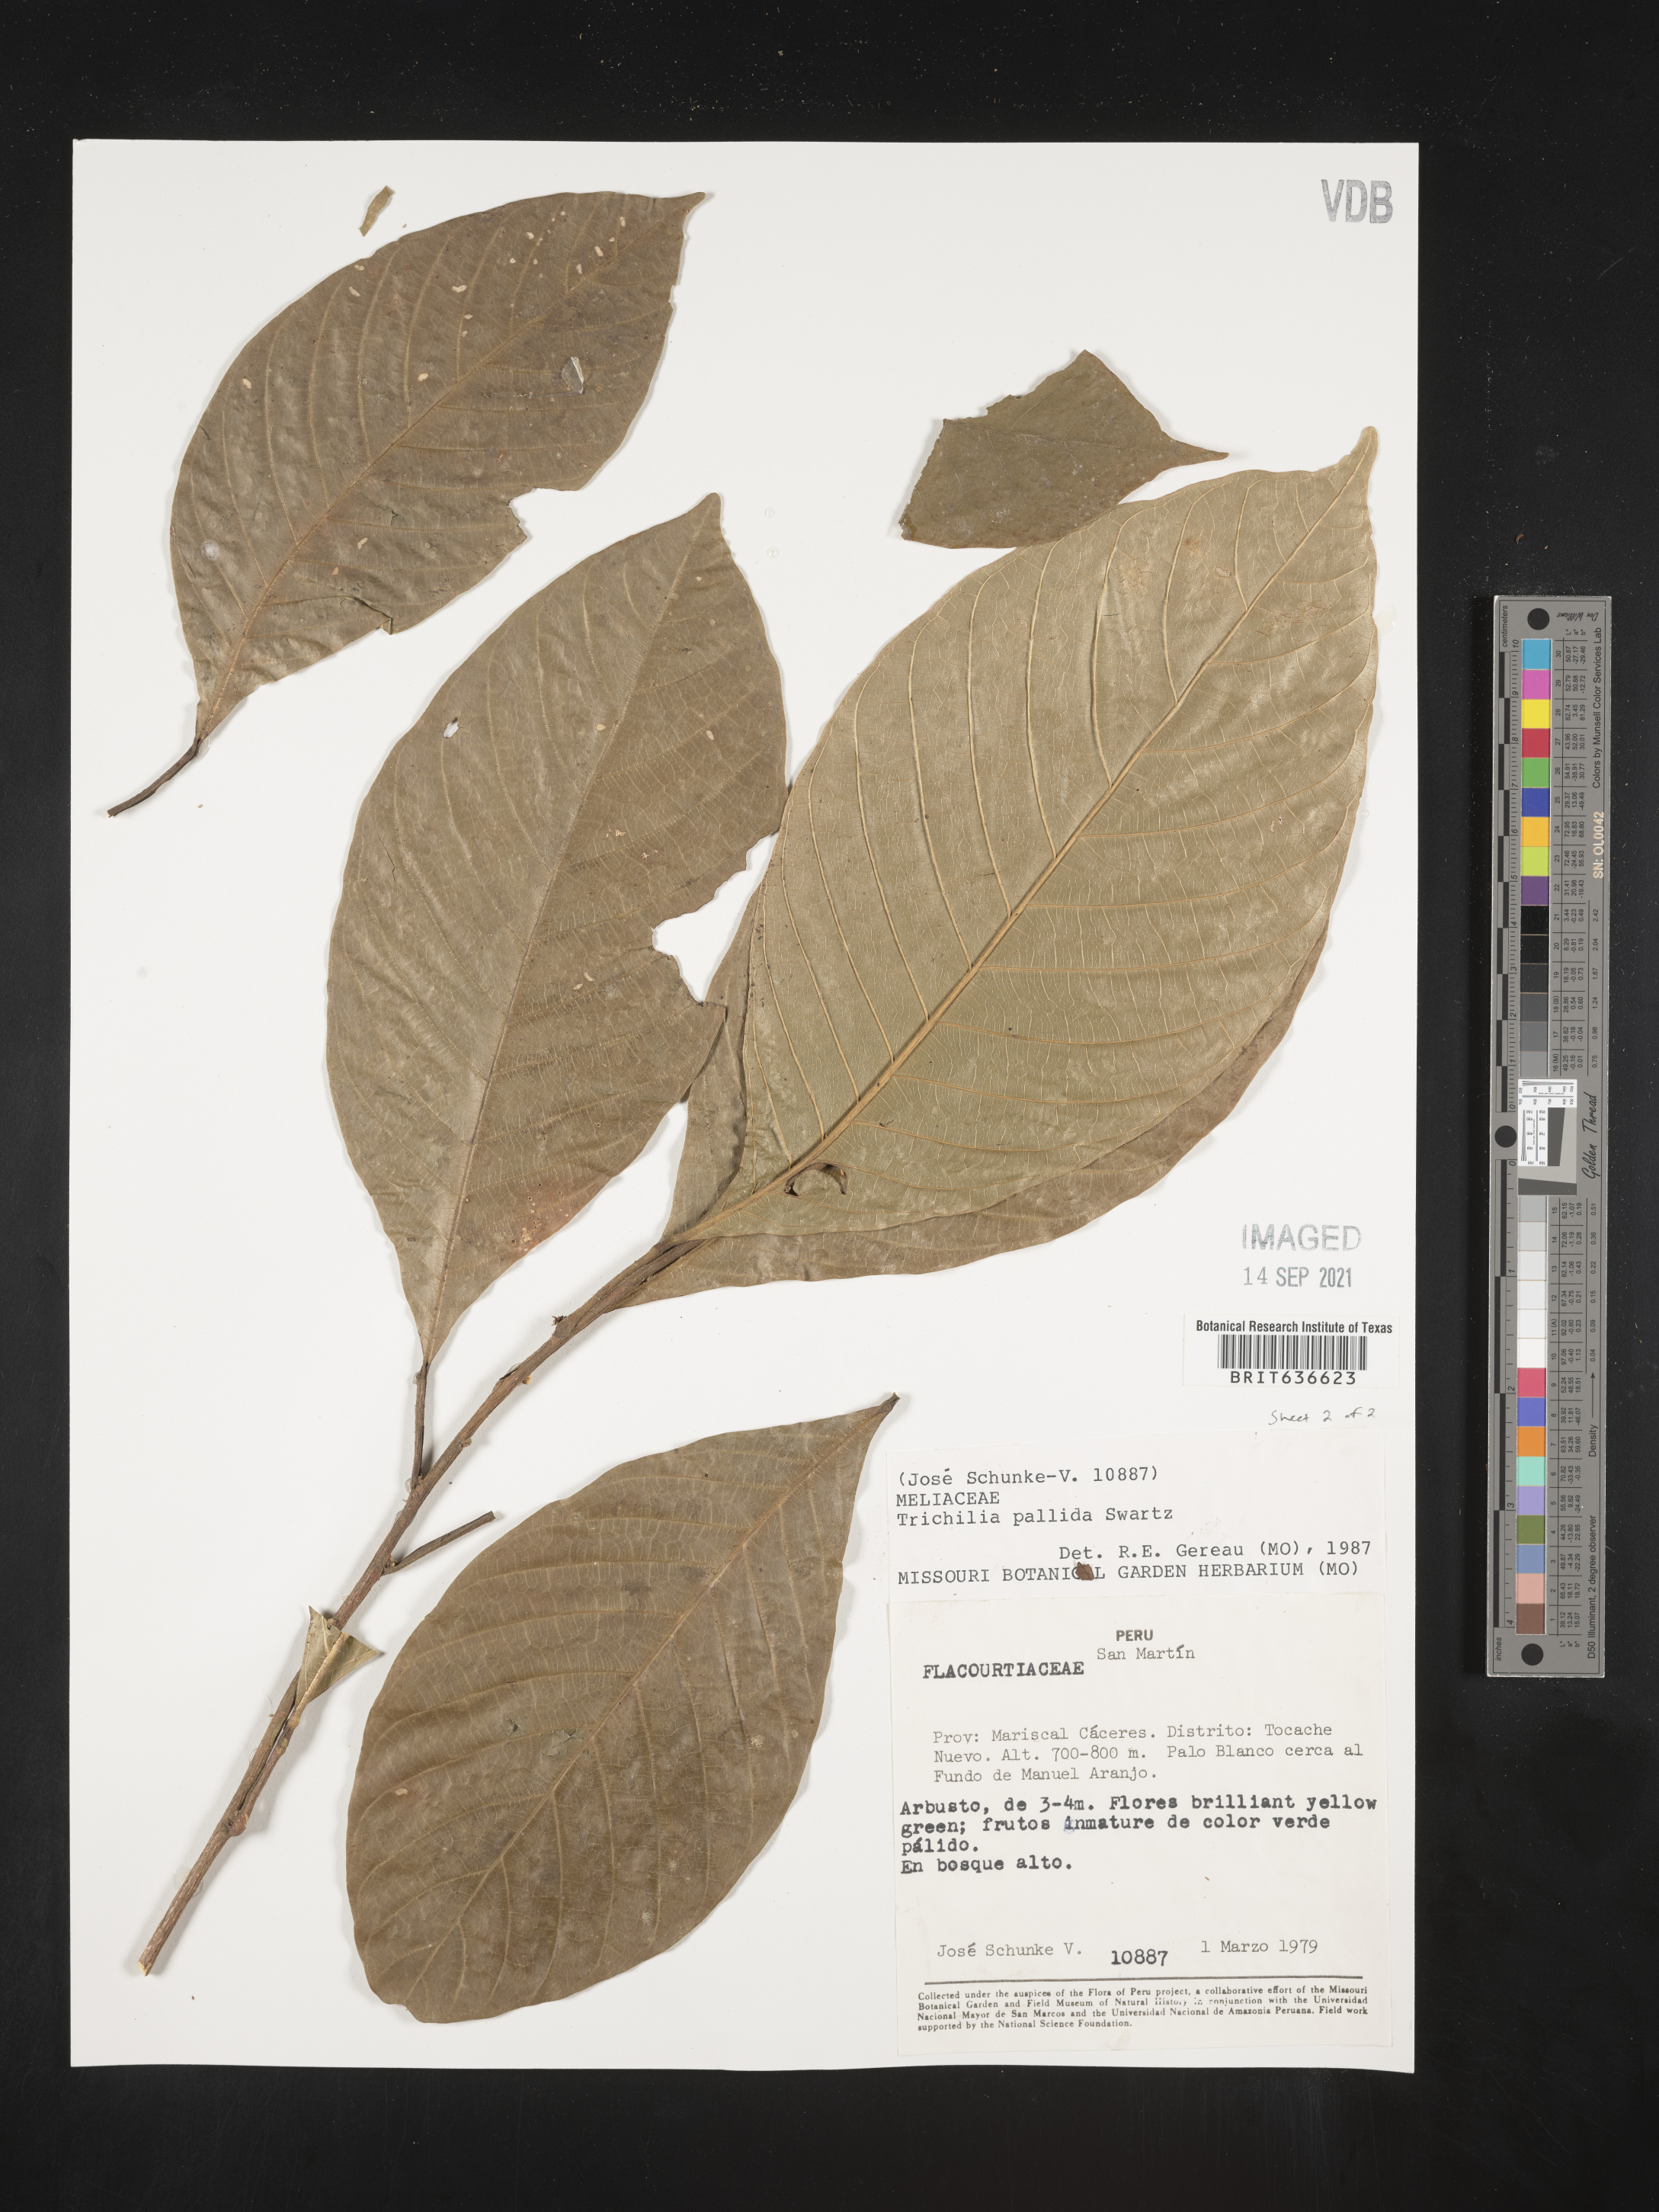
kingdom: Plantae
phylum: Tracheophyta
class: Magnoliopsida
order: Sapindales
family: Meliaceae
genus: Trichilia
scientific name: Trichilia
